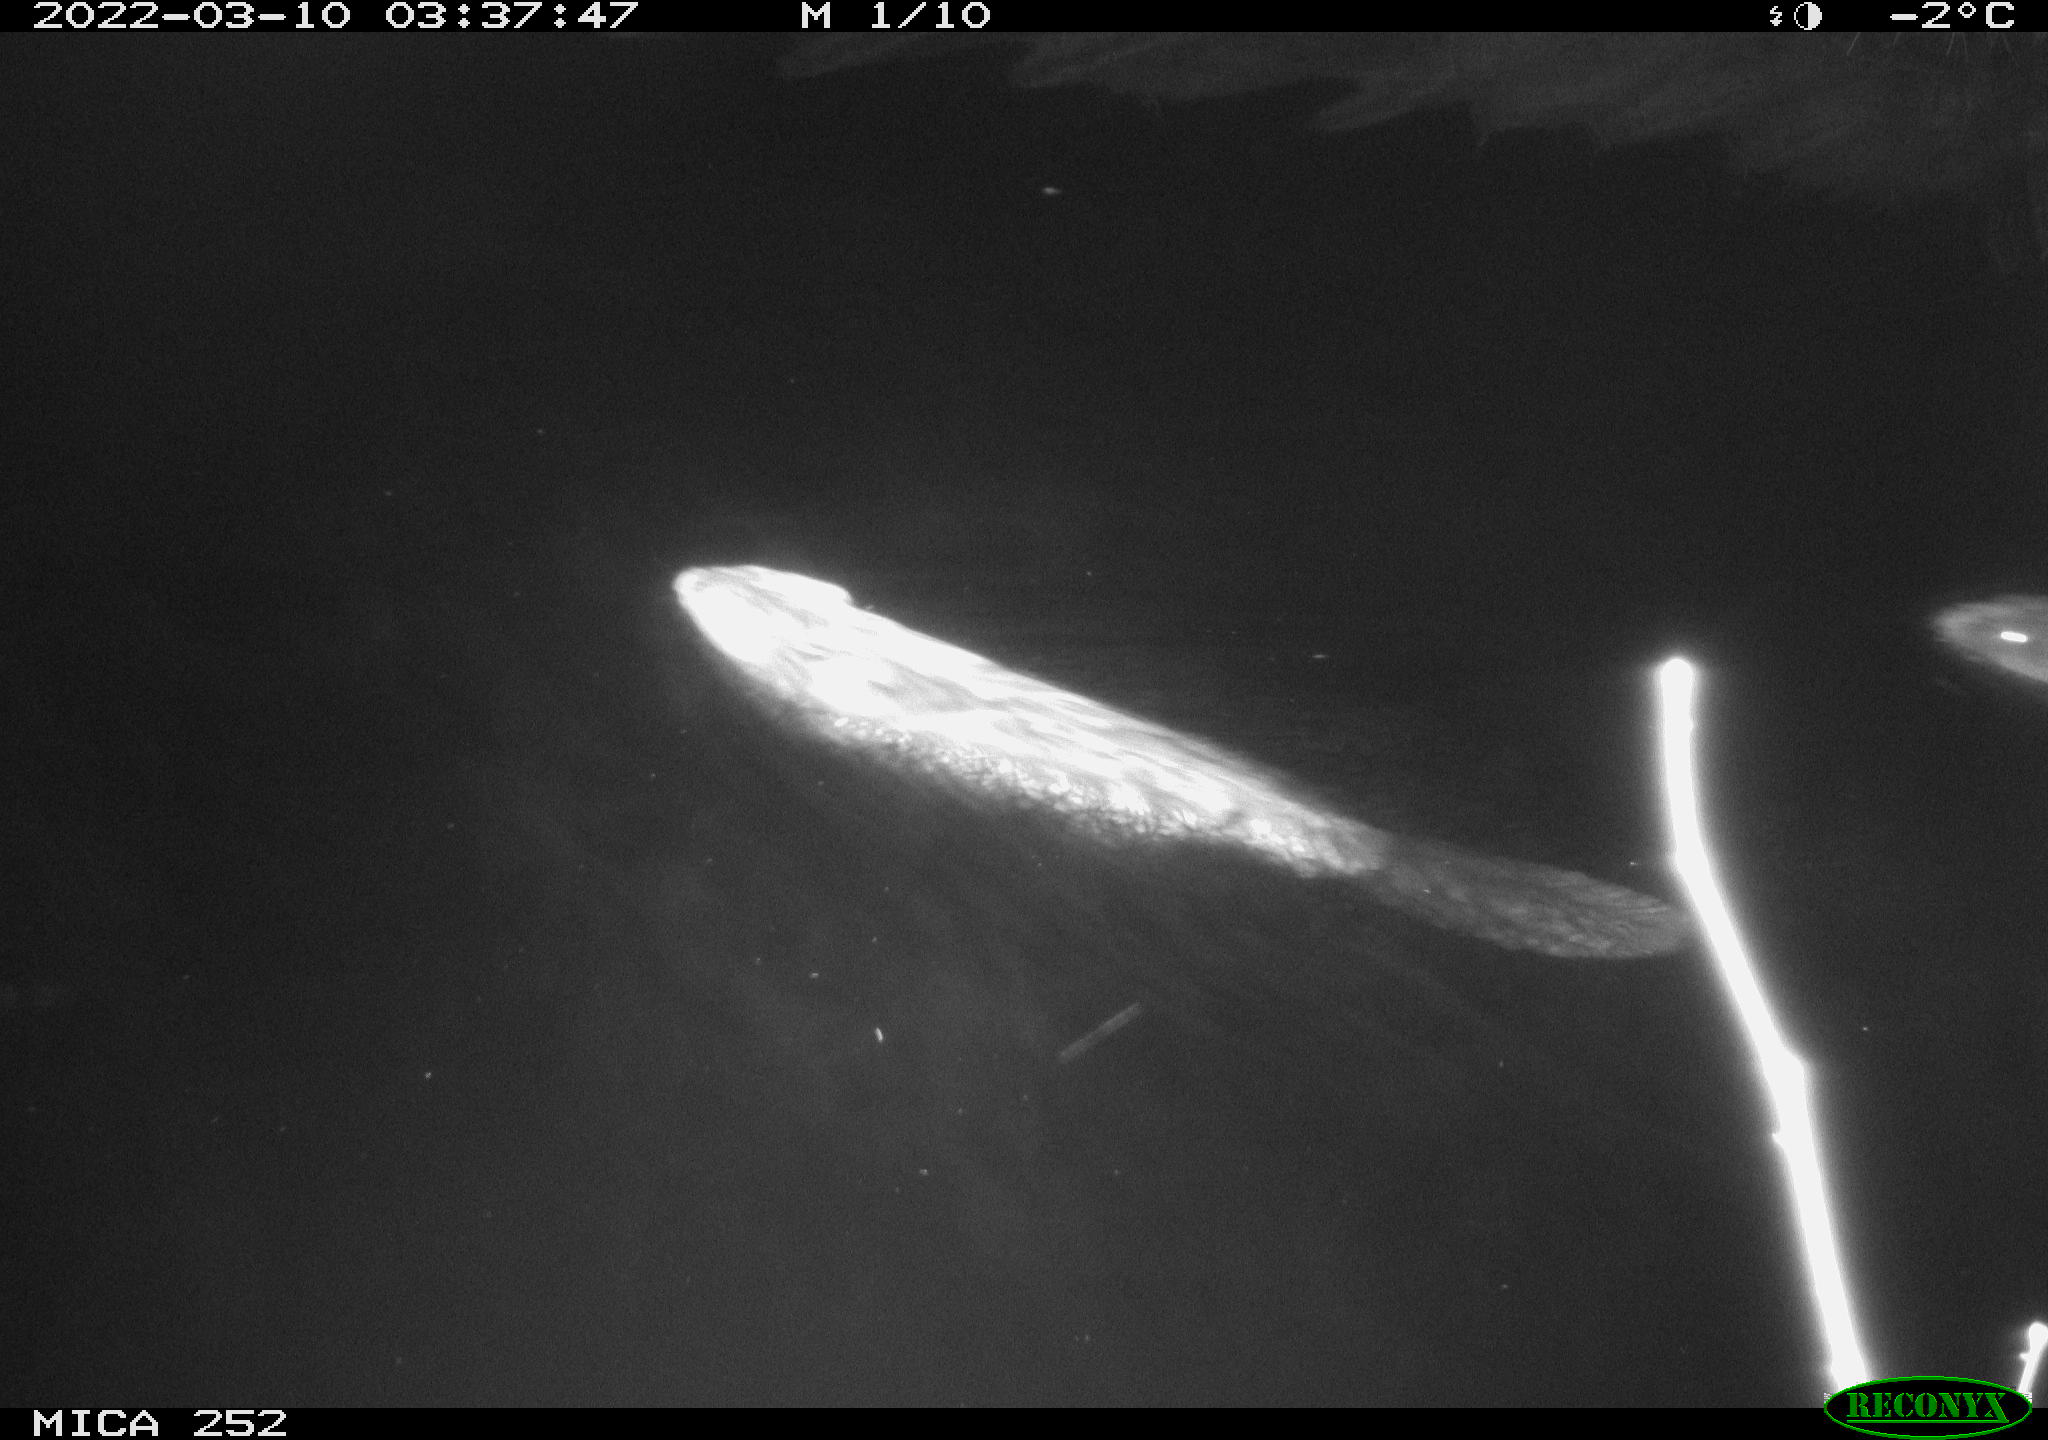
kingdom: Animalia
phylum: Chordata
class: Mammalia
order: Rodentia
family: Castoridae
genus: Castor
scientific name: Castor fiber
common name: Eurasian beaver
